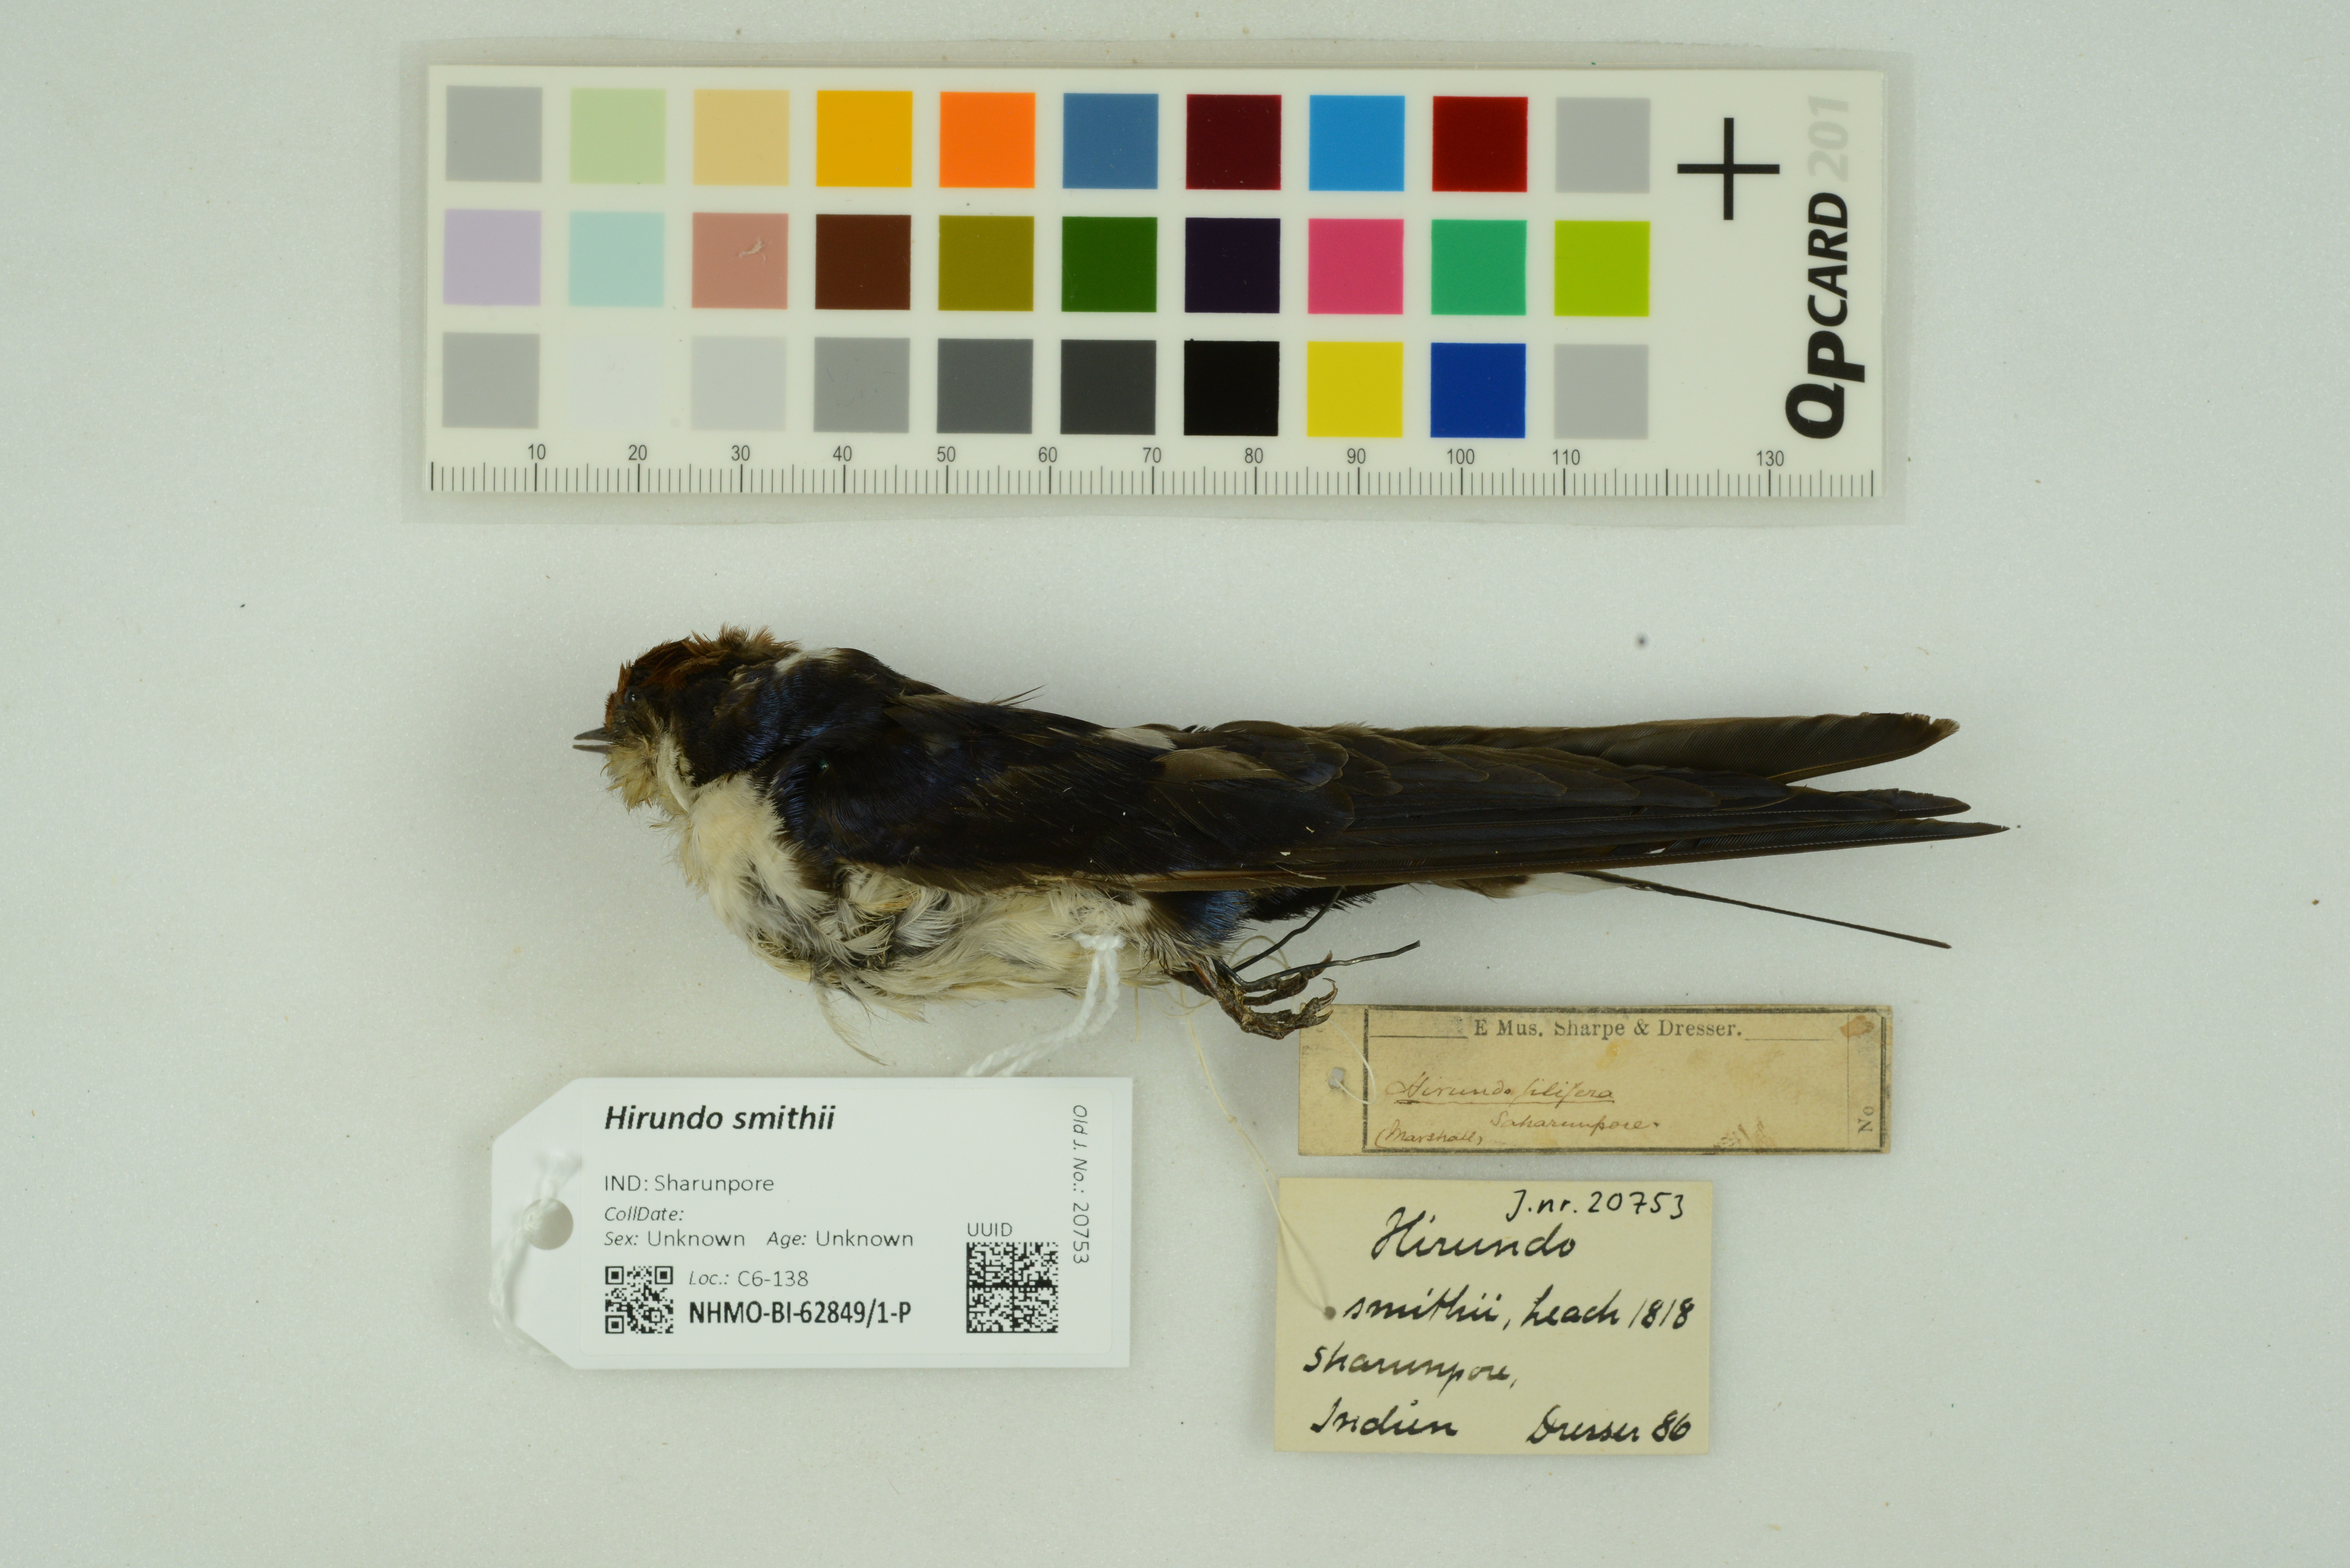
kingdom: Animalia
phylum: Chordata
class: Aves
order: Passeriformes
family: Hirundinidae
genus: Hirundo
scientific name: Hirundo smithii
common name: Wire-tailed swallow
